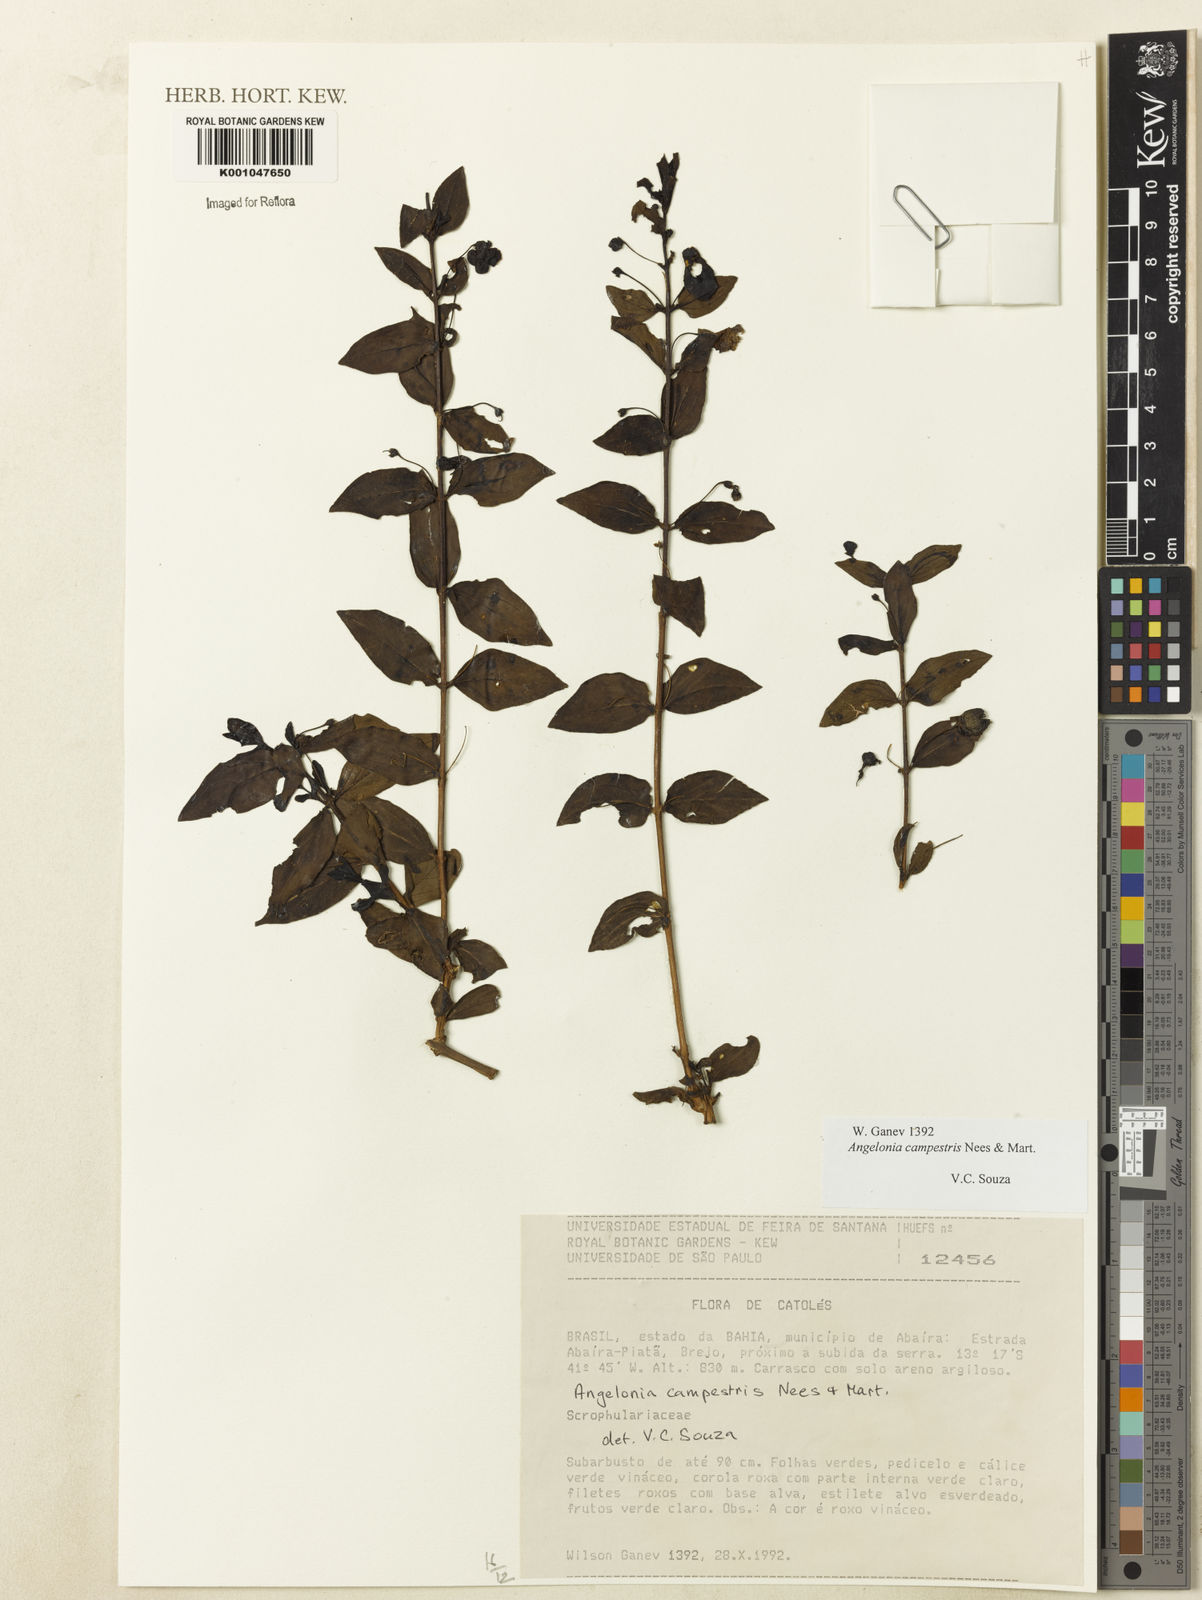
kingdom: Plantae
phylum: Tracheophyta
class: Magnoliopsida
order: Lamiales
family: Plantaginaceae
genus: Angelonia
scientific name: Angelonia campestris
